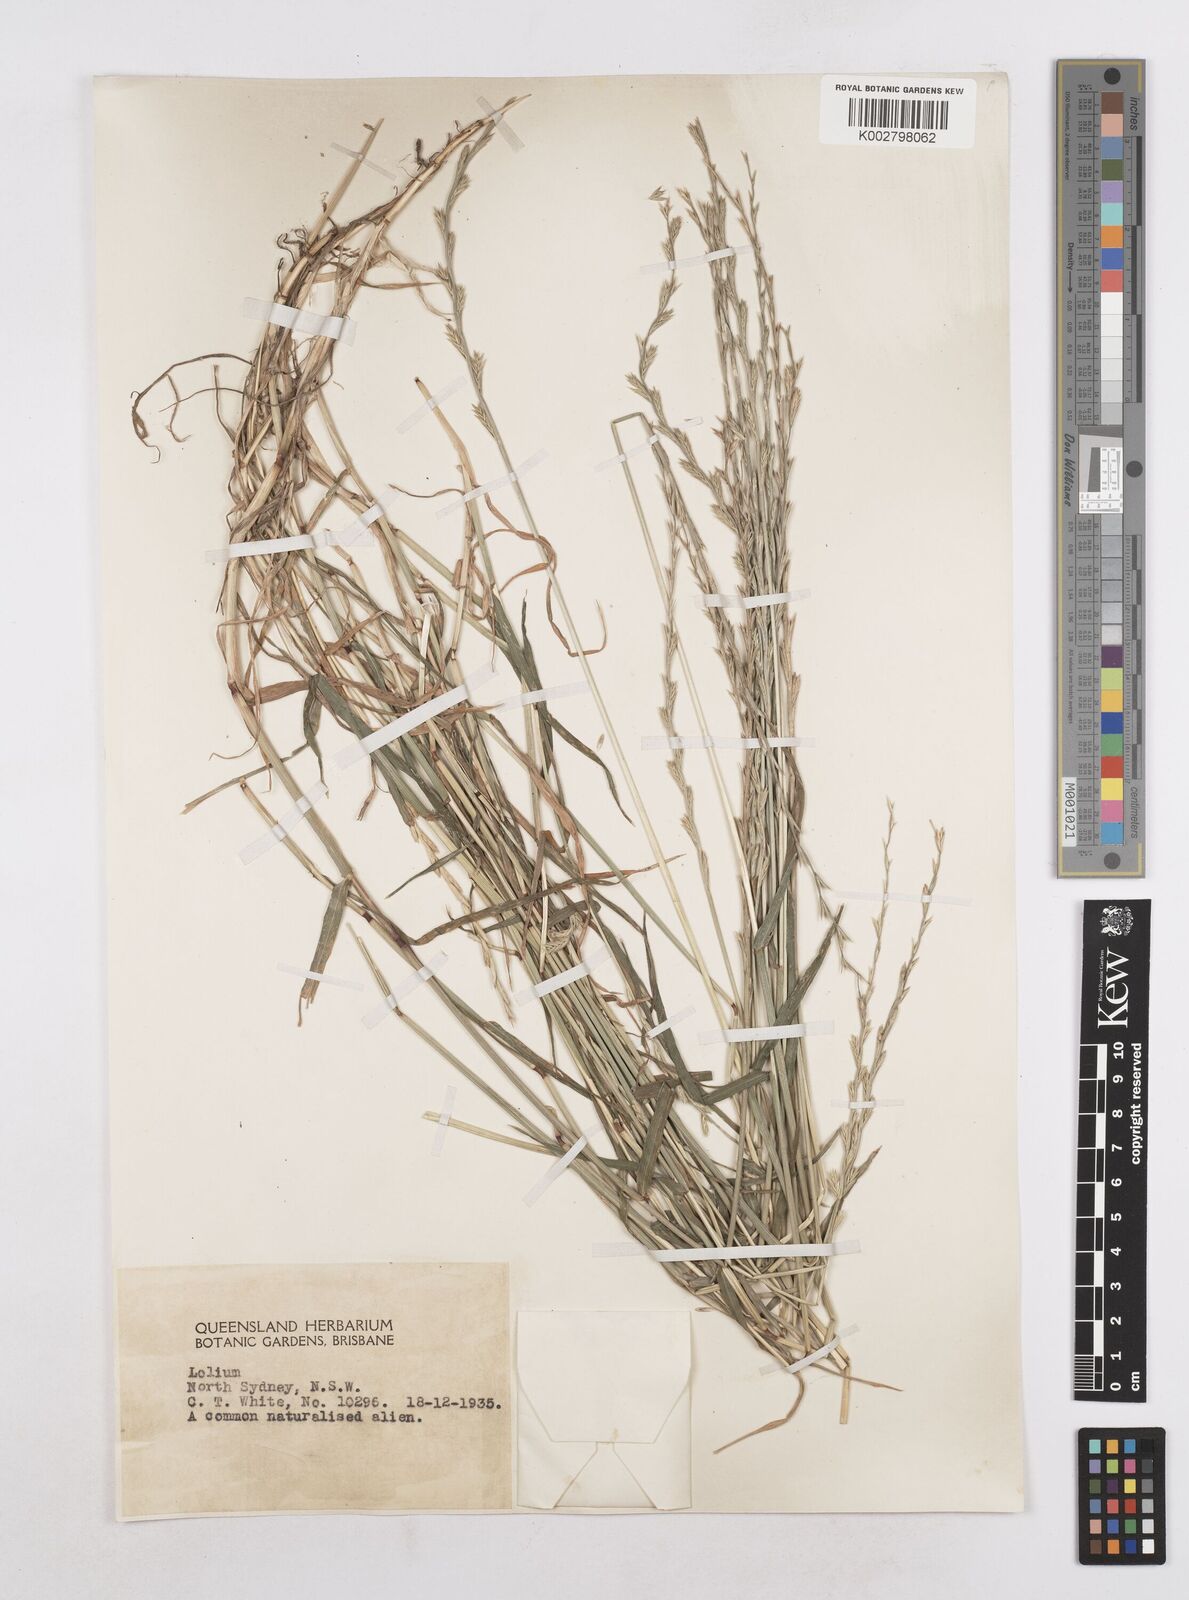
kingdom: Plantae
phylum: Tracheophyta
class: Liliopsida
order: Poales
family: Poaceae
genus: Lolium
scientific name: Lolium
